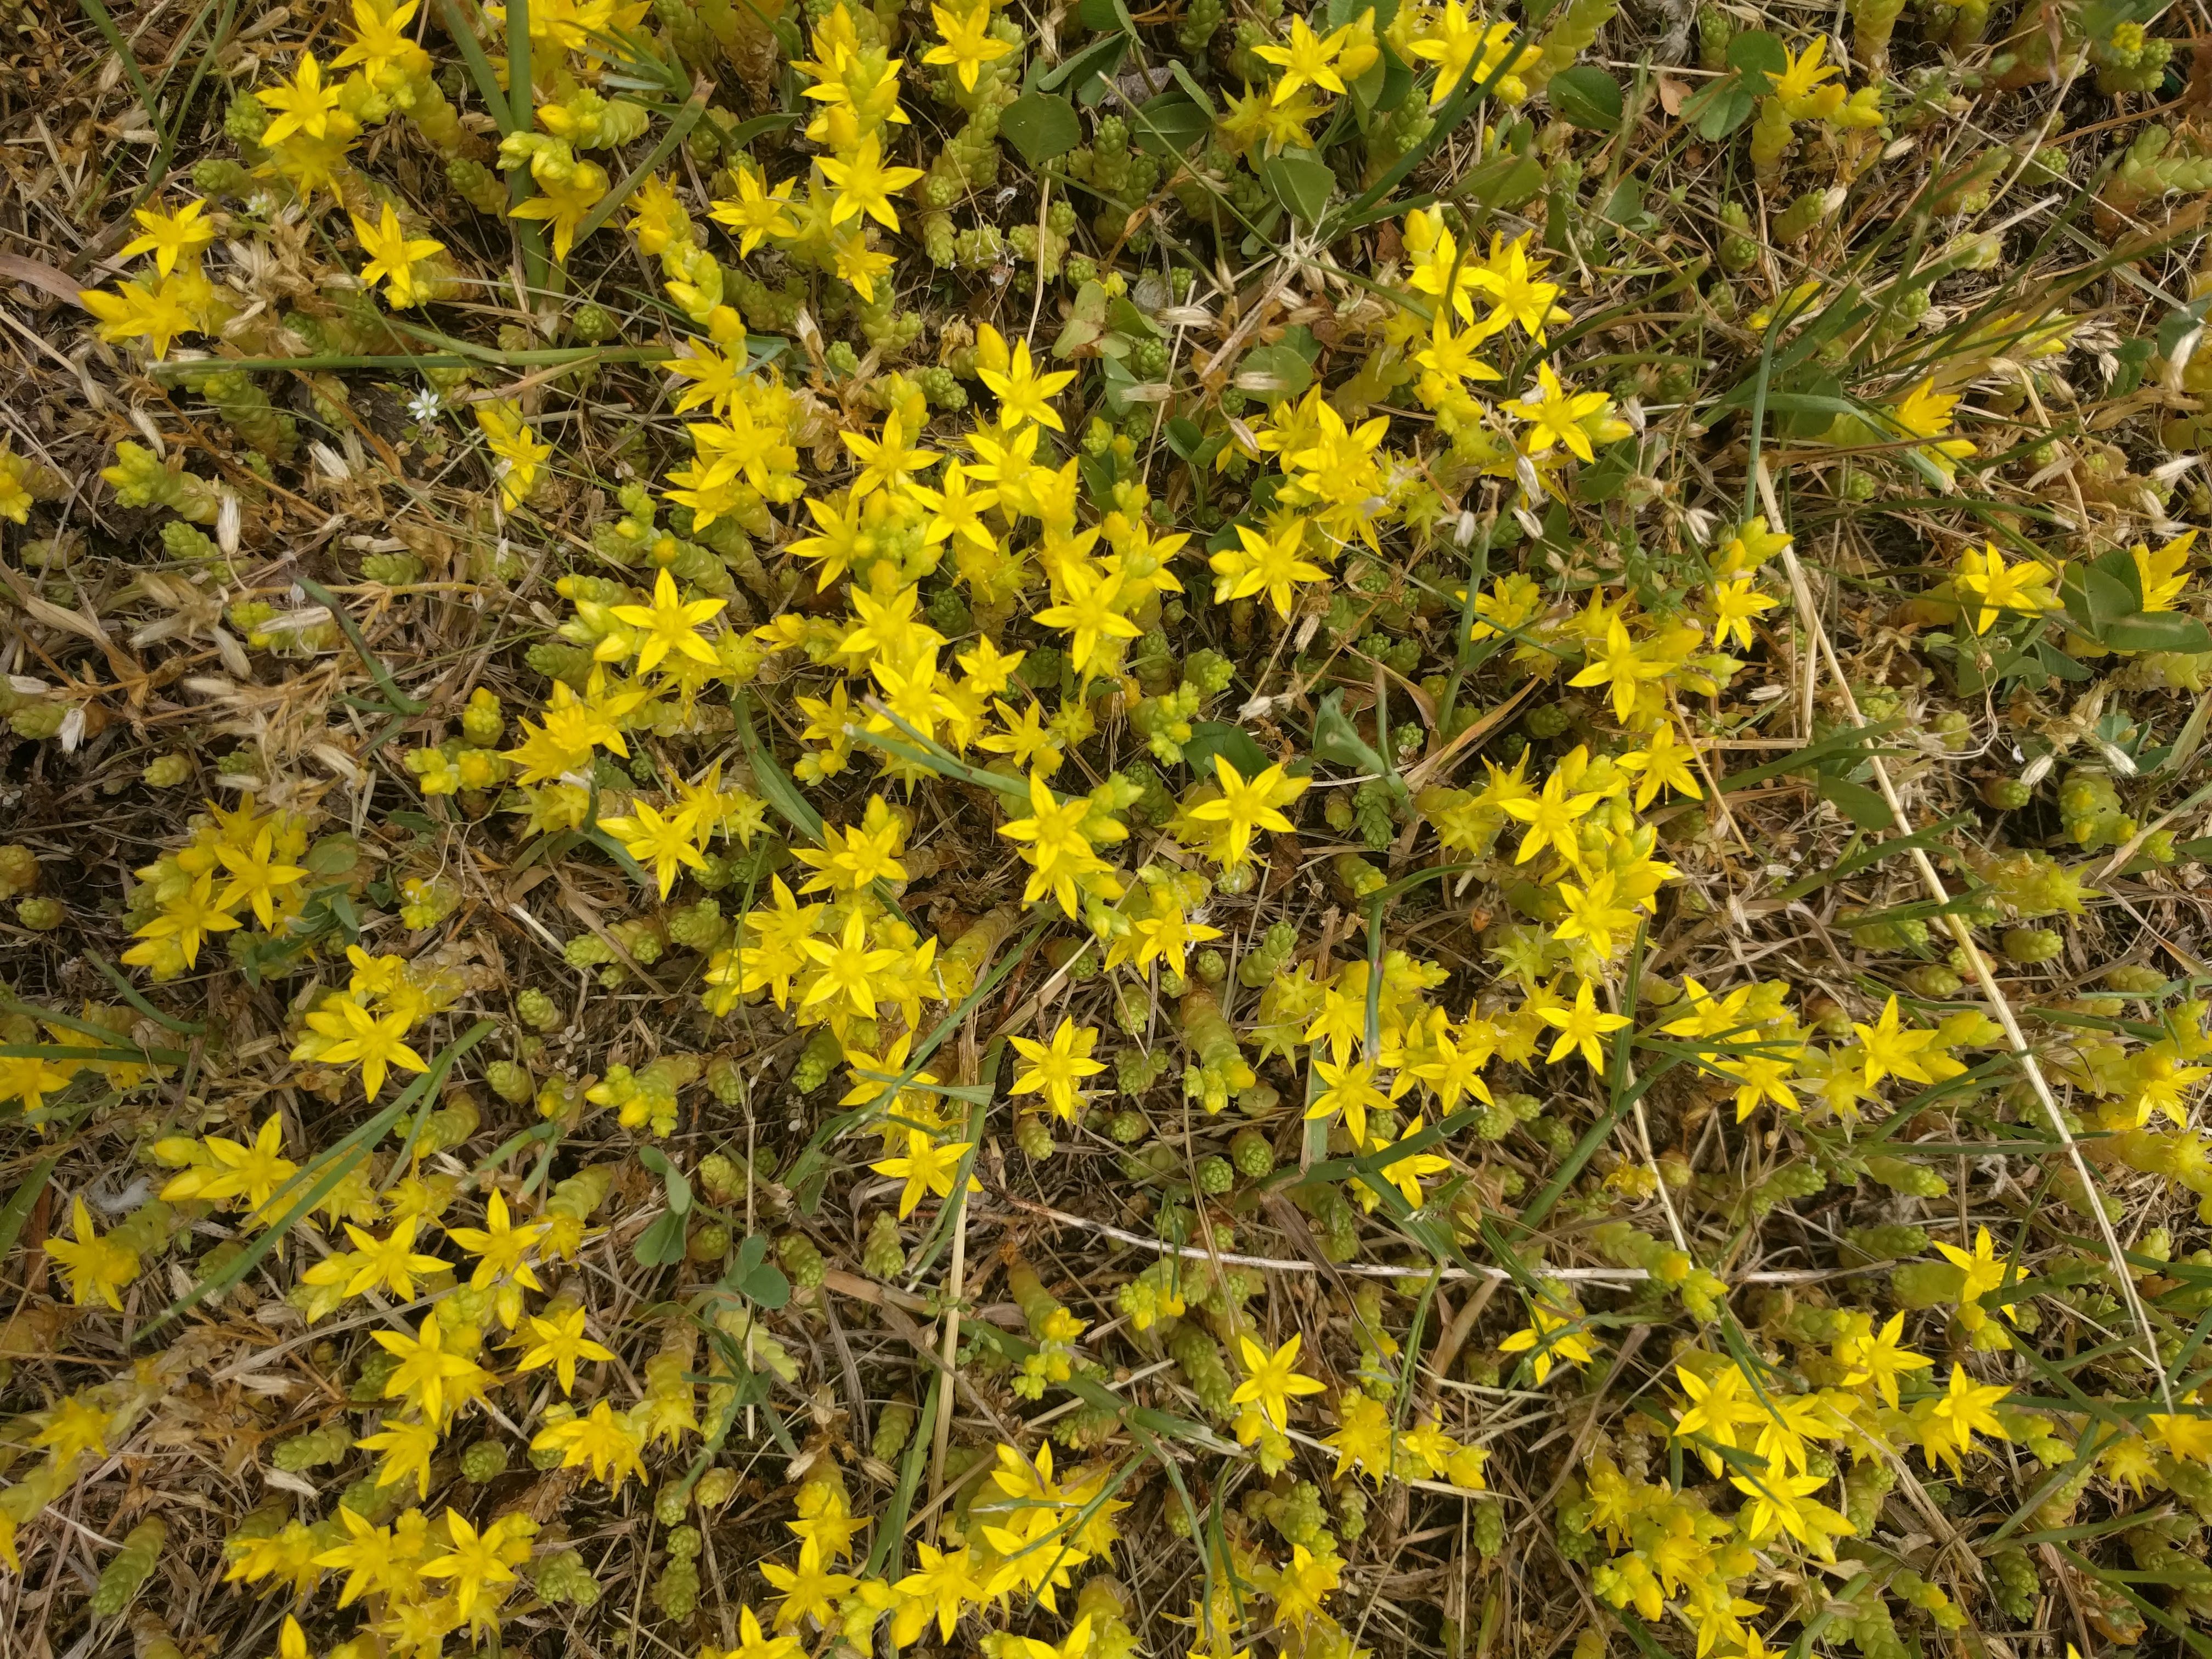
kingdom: Plantae
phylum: Tracheophyta
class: Magnoliopsida
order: Saxifragales
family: Crassulaceae
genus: Sedum
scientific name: Sedum acre
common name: Biting stonecrop
